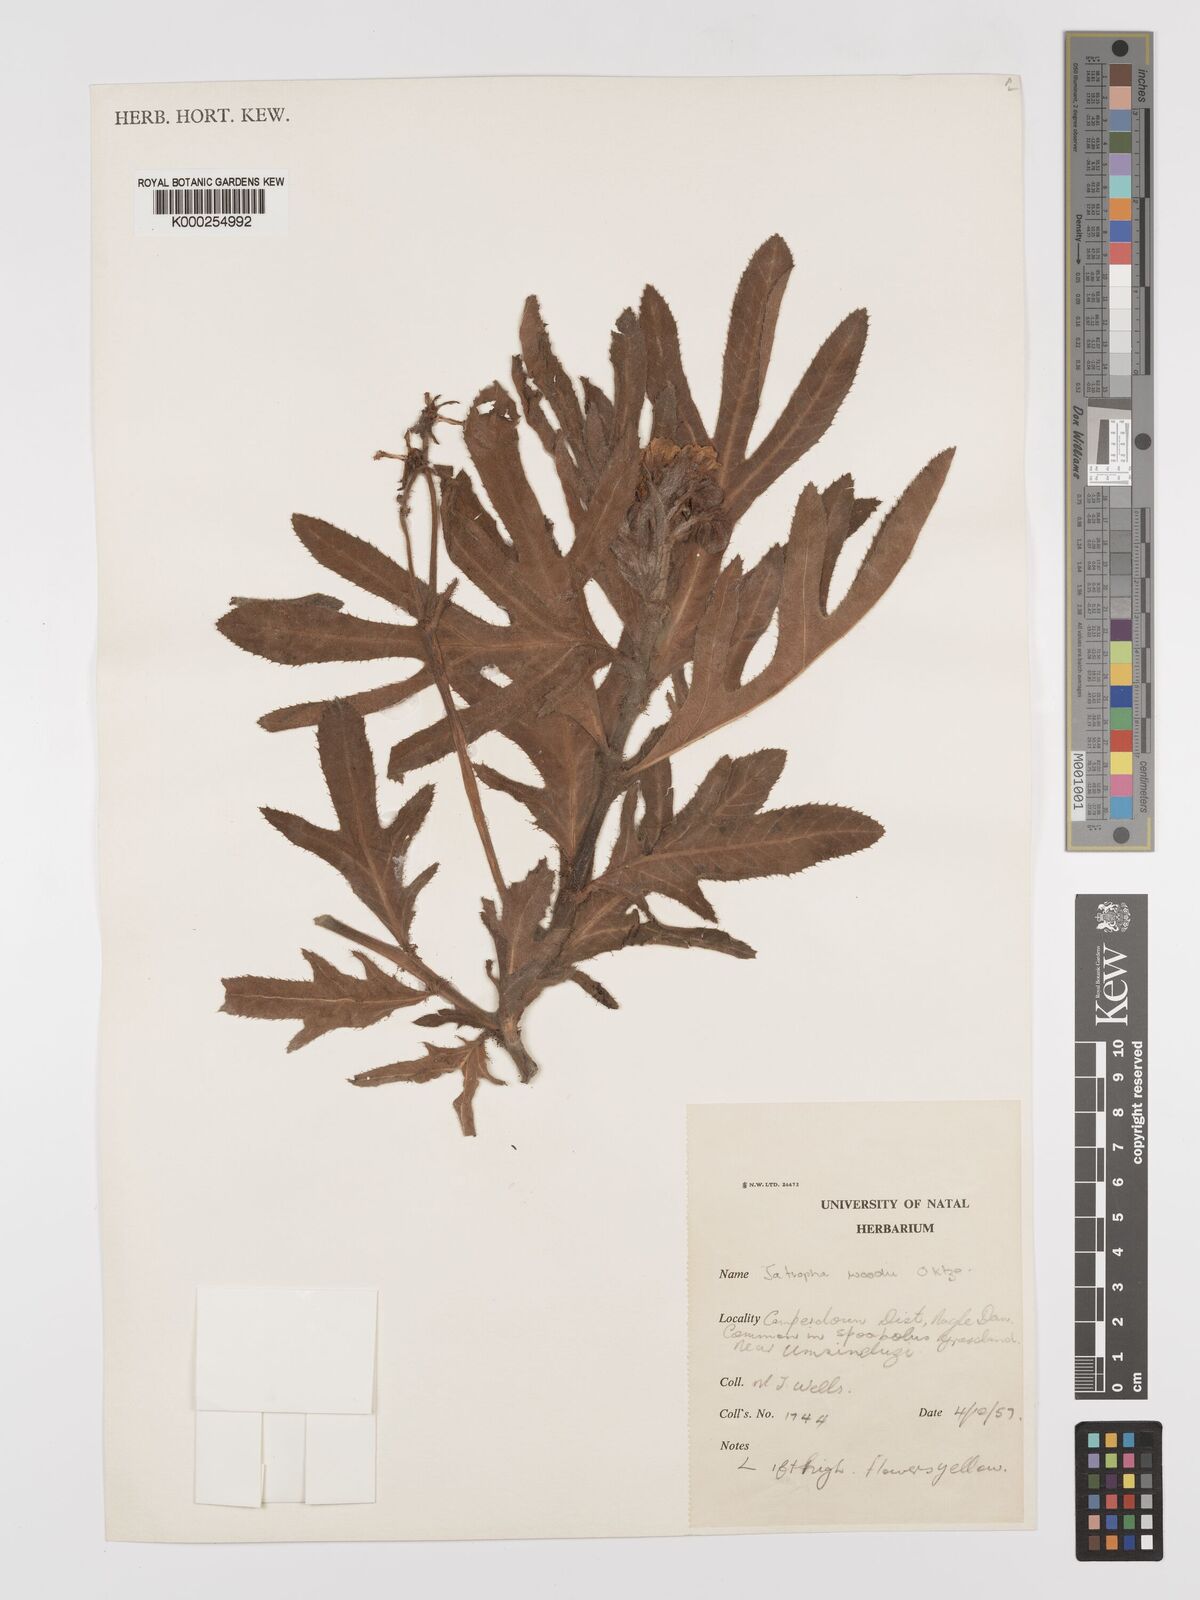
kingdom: Plantae
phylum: Tracheophyta
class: Magnoliopsida
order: Malpighiales
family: Euphorbiaceae
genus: Jatropha
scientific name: Jatropha woodii
